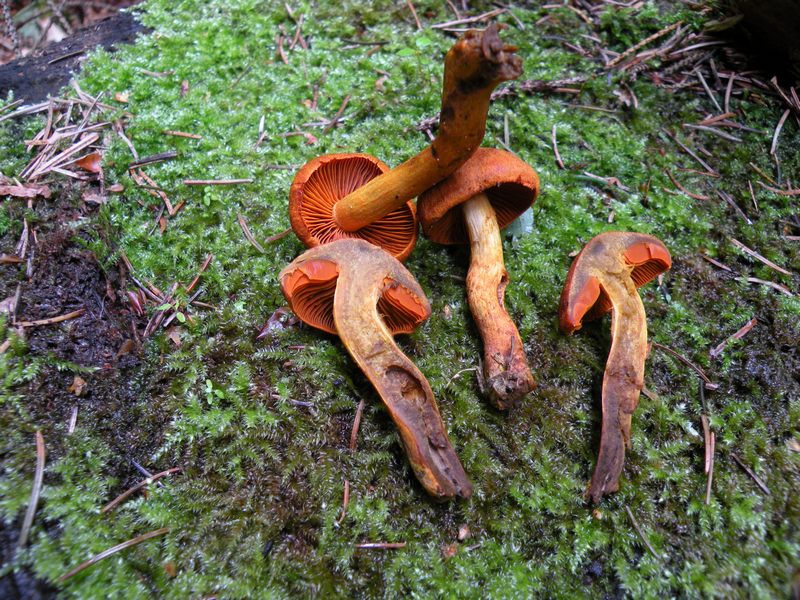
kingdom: Fungi
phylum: Basidiomycota
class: Agaricomycetes
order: Agaricales
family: Cortinariaceae
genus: Cortinarius
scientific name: Cortinarius malicorius
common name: grønkødet slørhat
